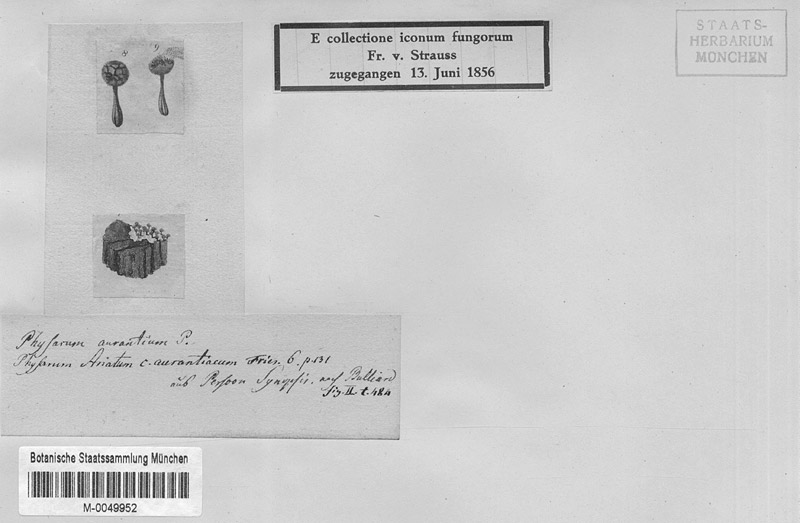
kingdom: Protozoa
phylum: Mycetozoa
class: Myxomycetes
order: Physarales
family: Physaraceae
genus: Physarum
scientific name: Physarum viride
